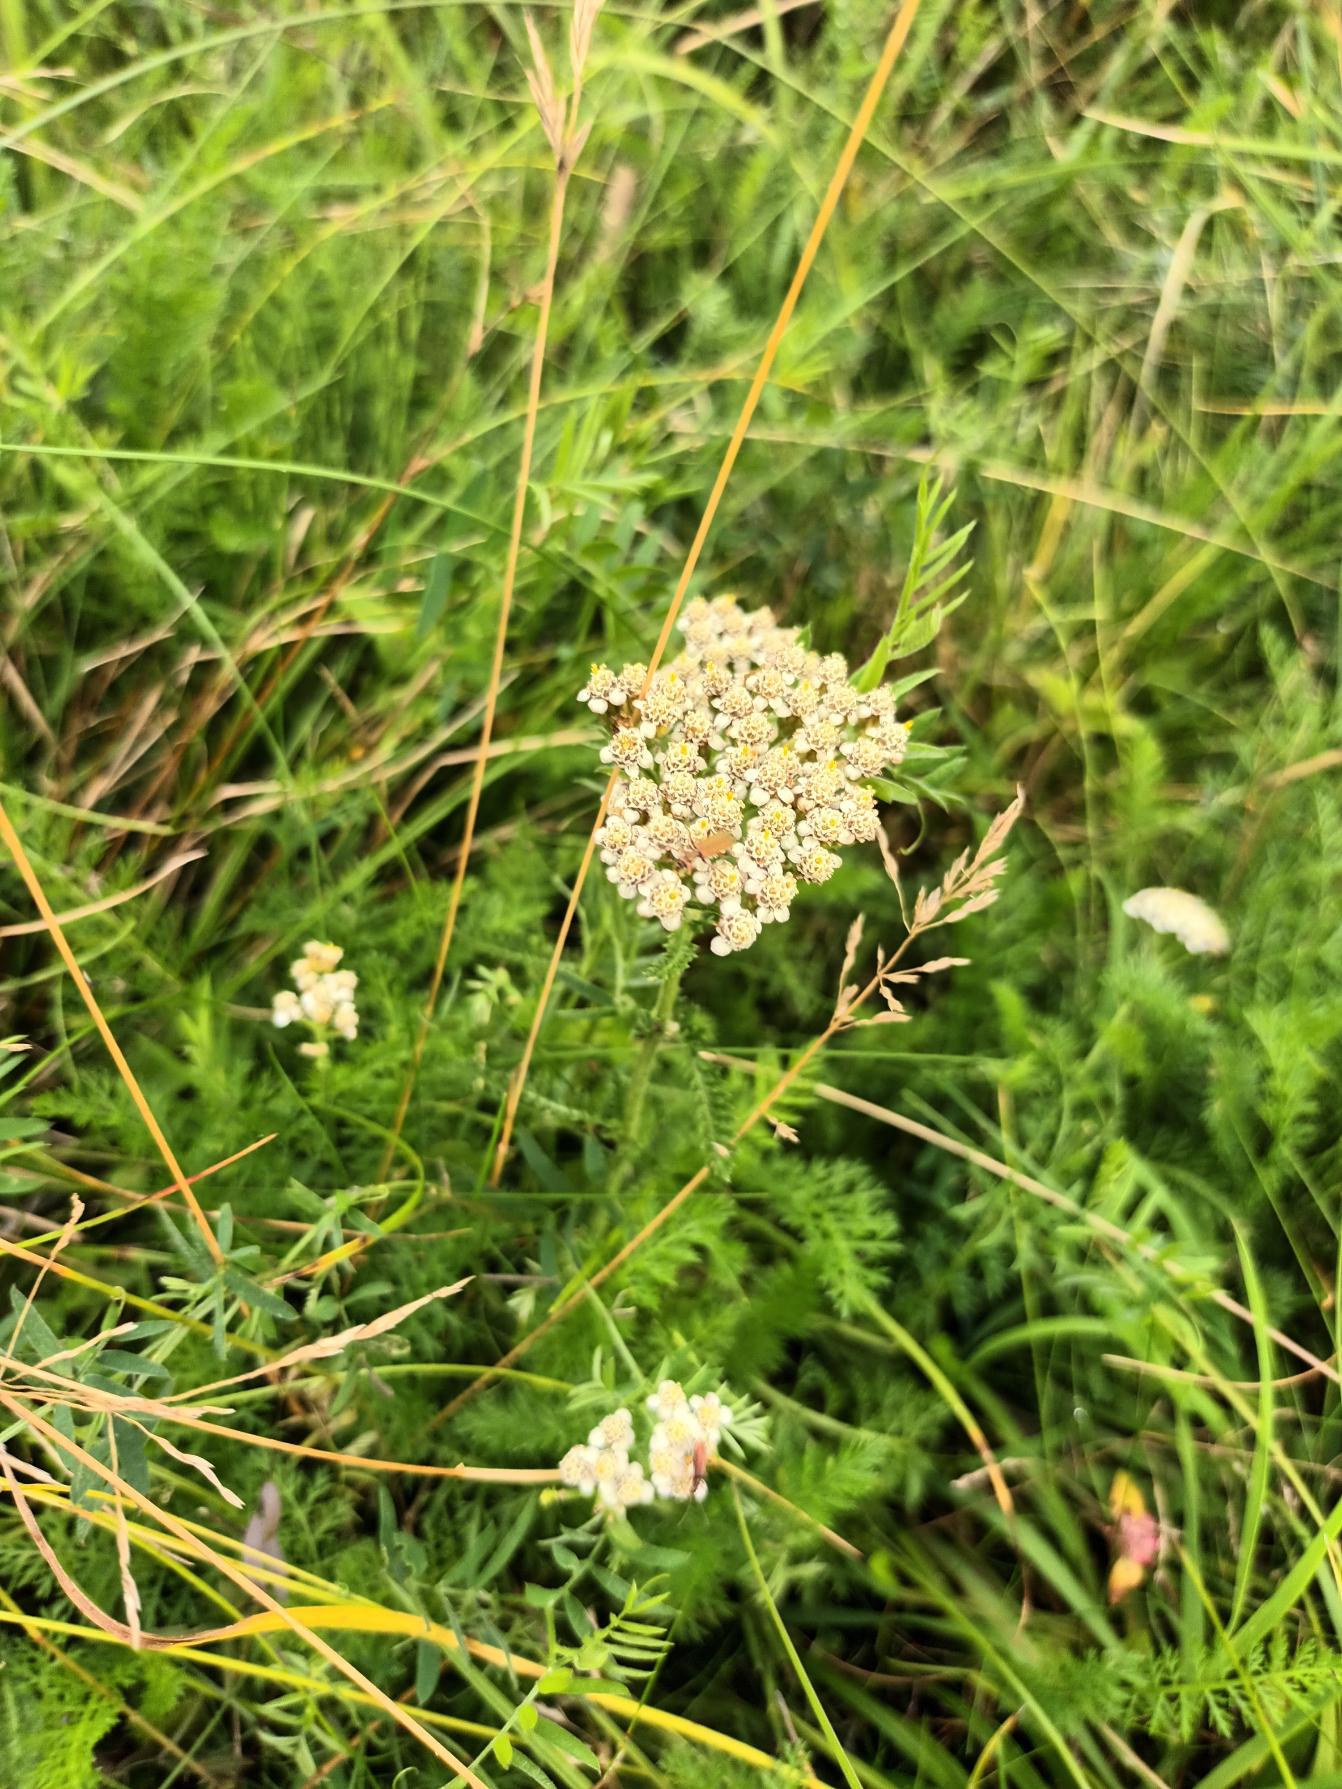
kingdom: Plantae
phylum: Tracheophyta
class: Magnoliopsida
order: Asterales
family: Asteraceae
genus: Achillea
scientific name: Achillea millefolium
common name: Almindelig røllike
